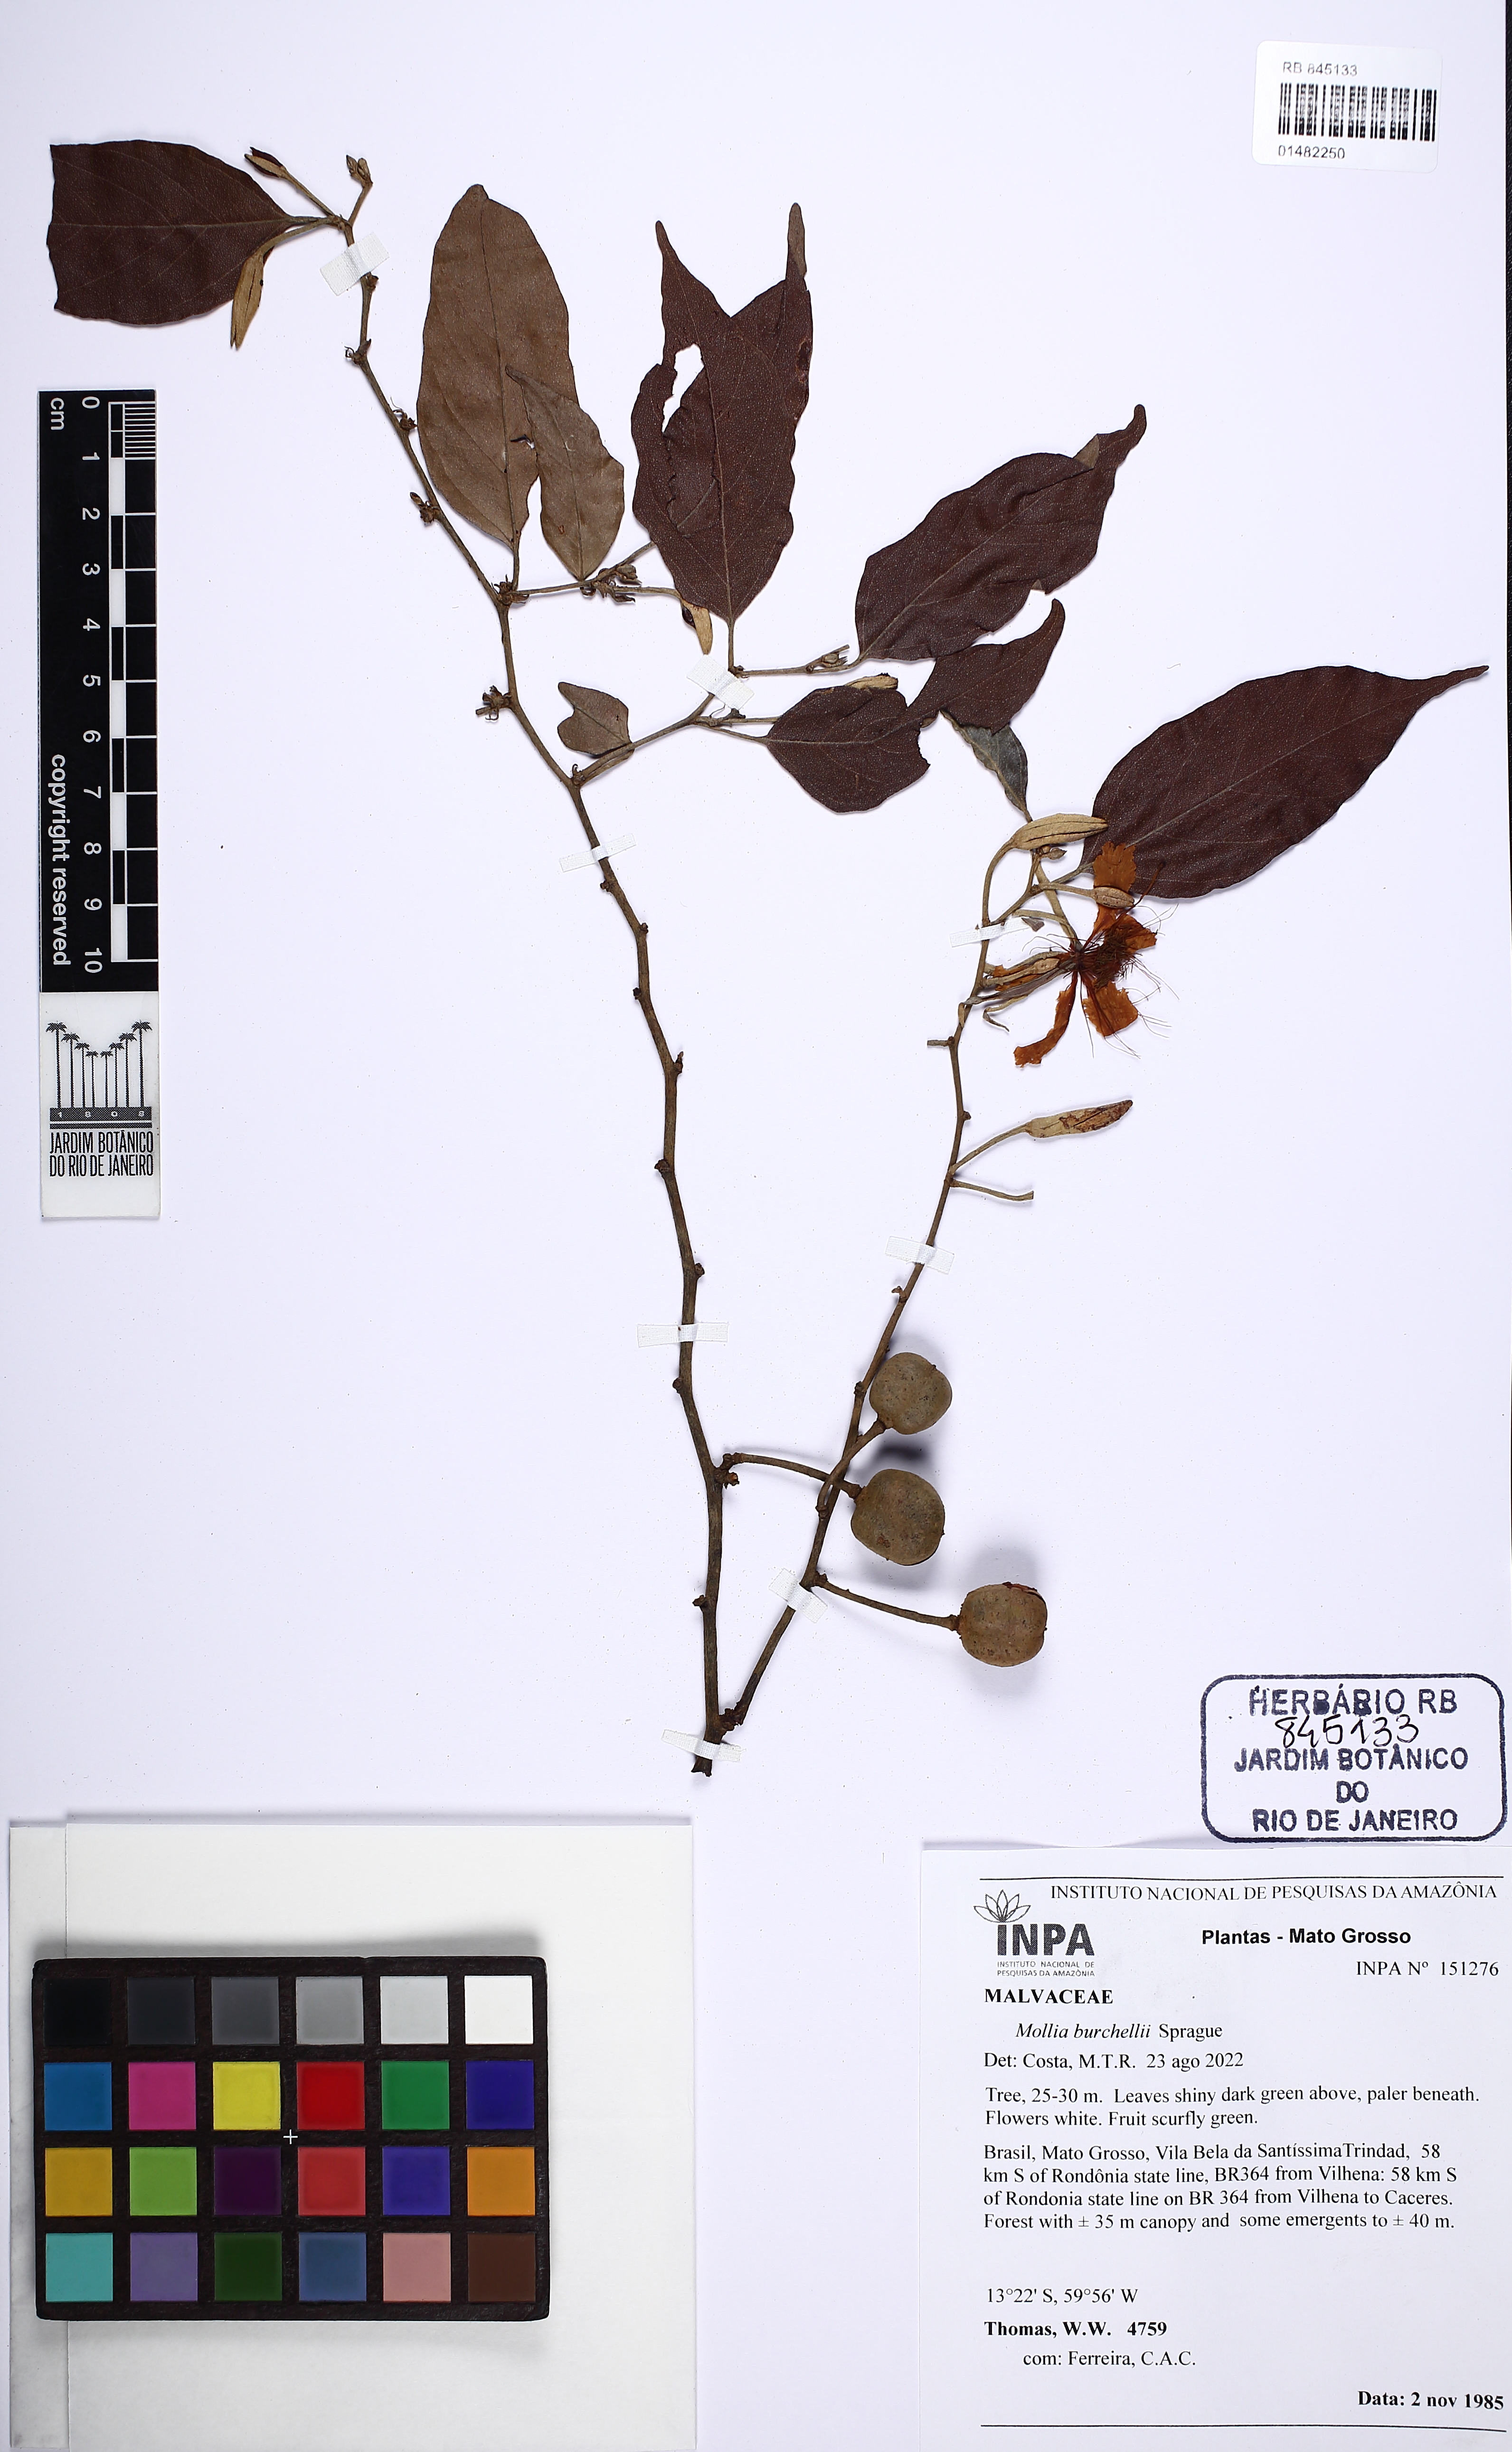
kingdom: Plantae
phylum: Tracheophyta
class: Magnoliopsida
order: Malvales
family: Malvaceae
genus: Mollia
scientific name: Mollia burchellii
